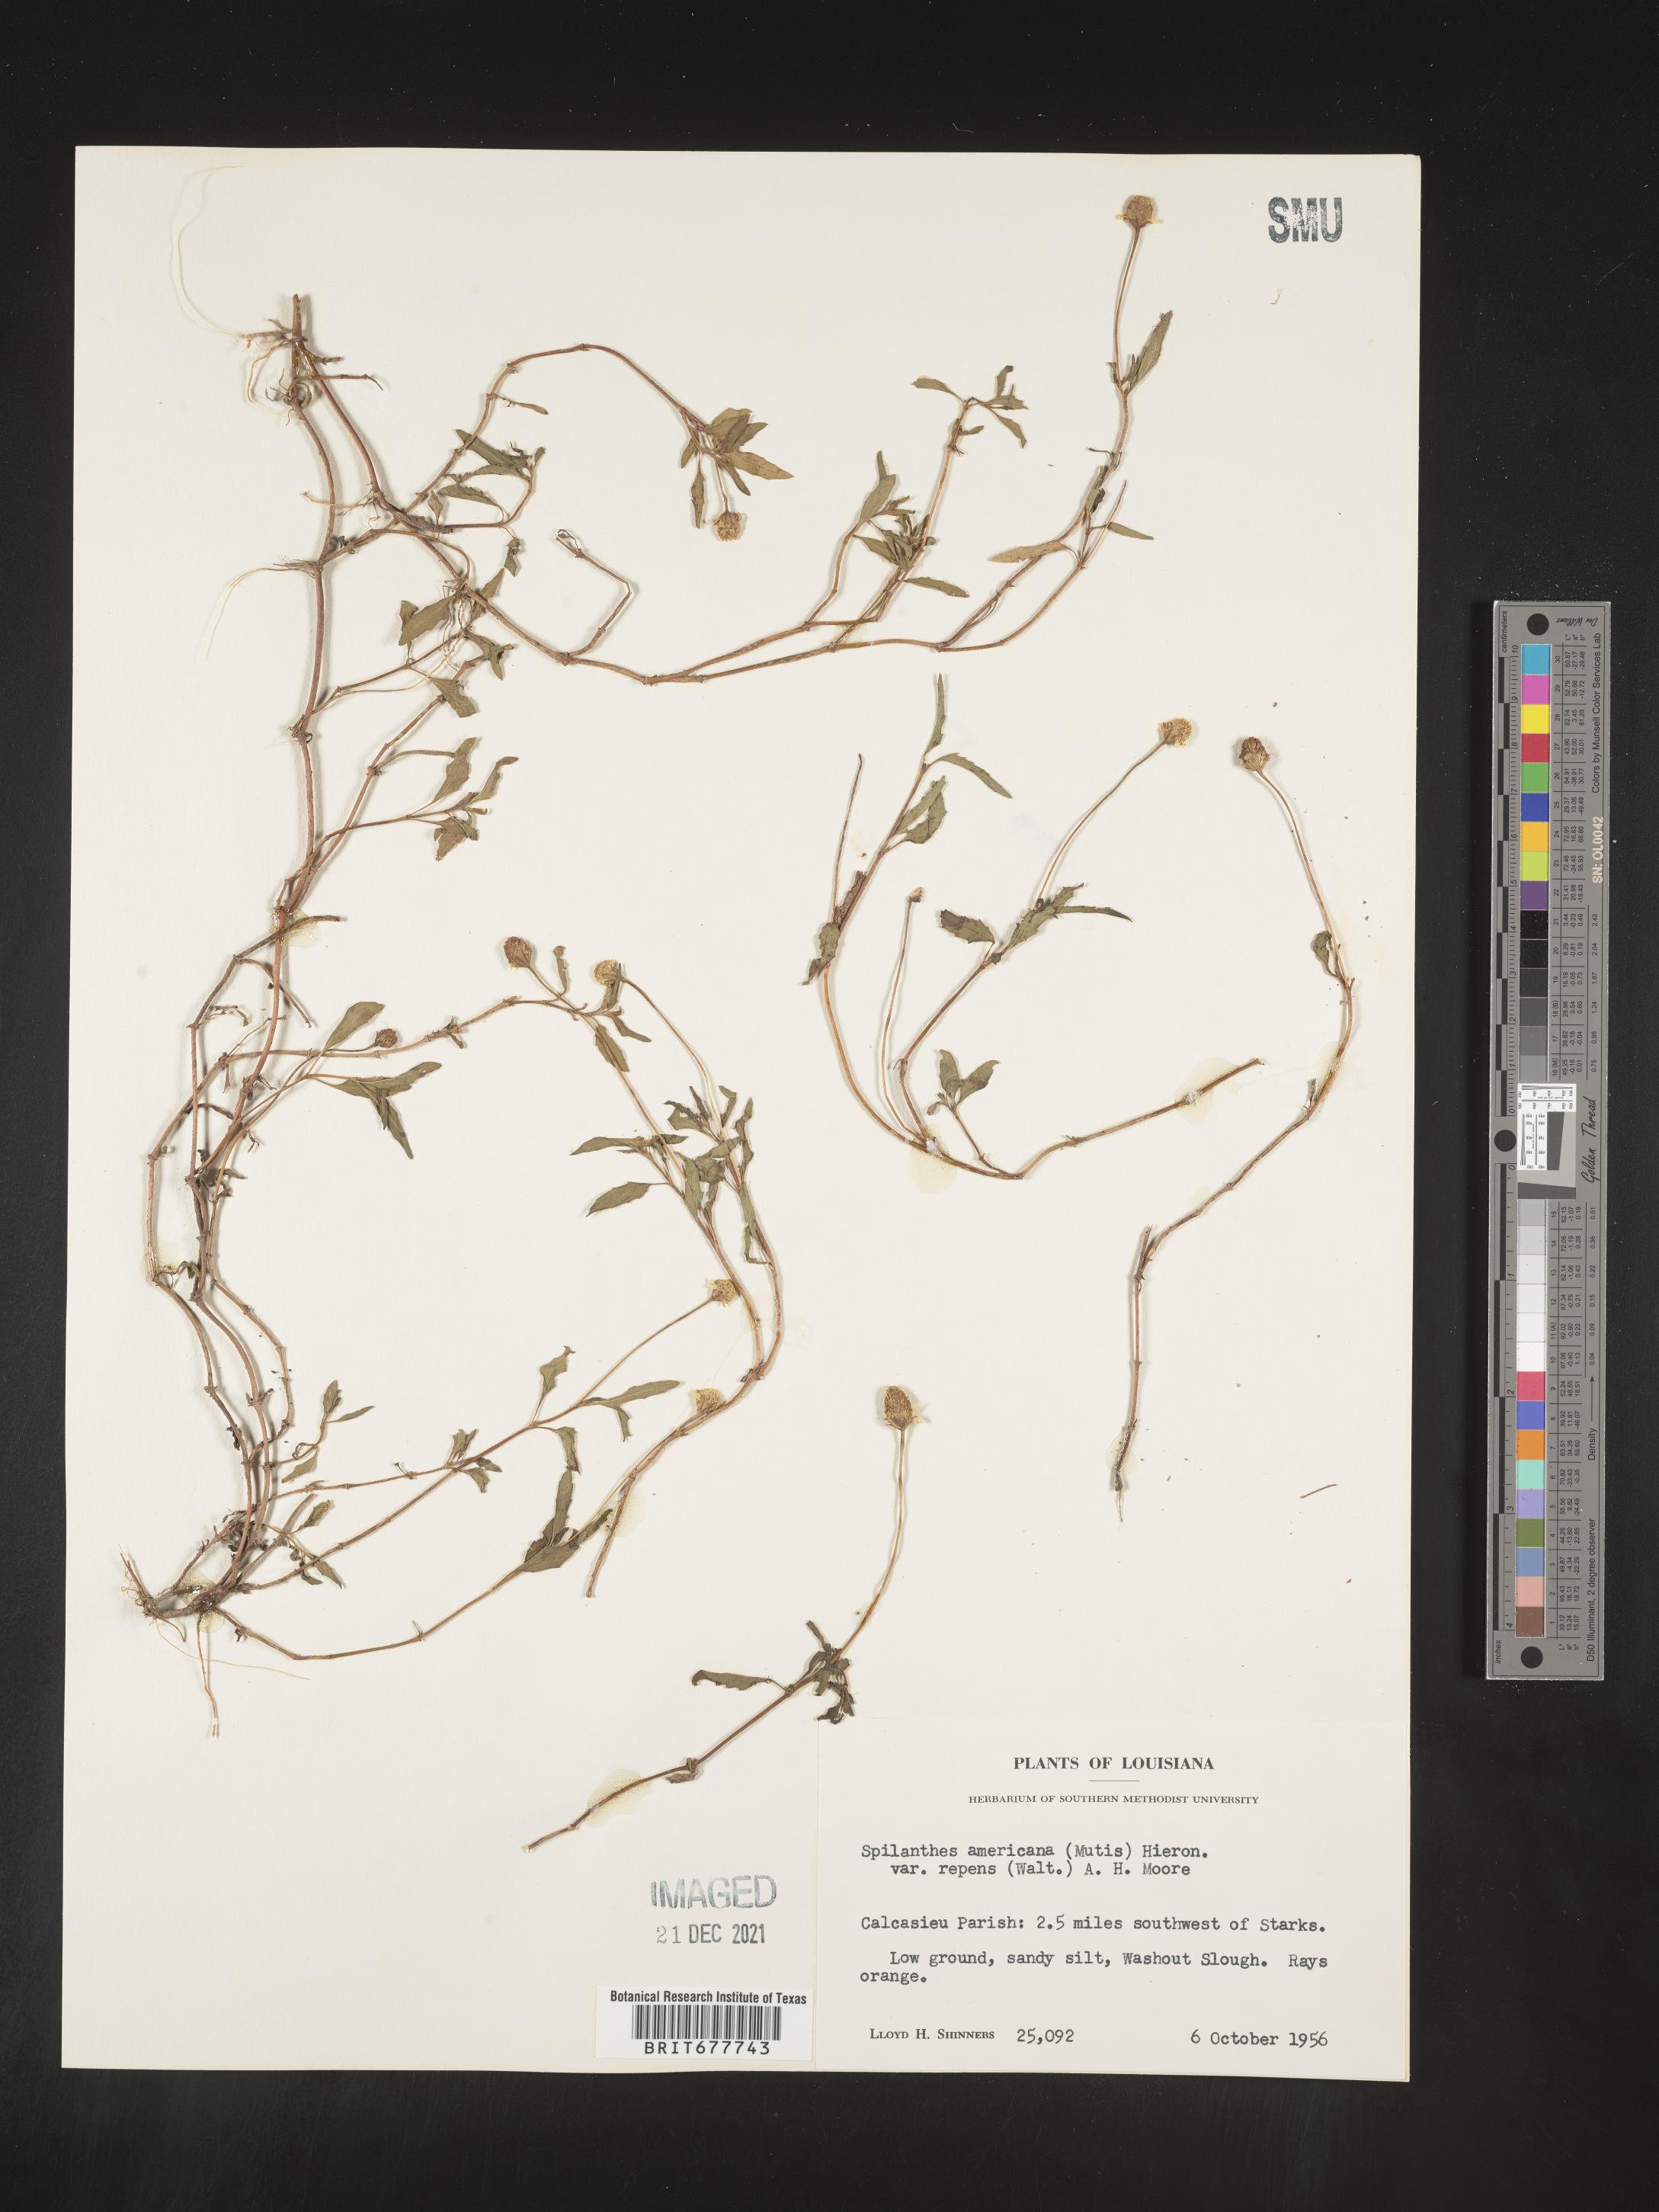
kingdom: Plantae
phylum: Tracheophyta
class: Magnoliopsida
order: Asterales
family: Asteraceae
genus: Spilanthes
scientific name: Spilanthes
